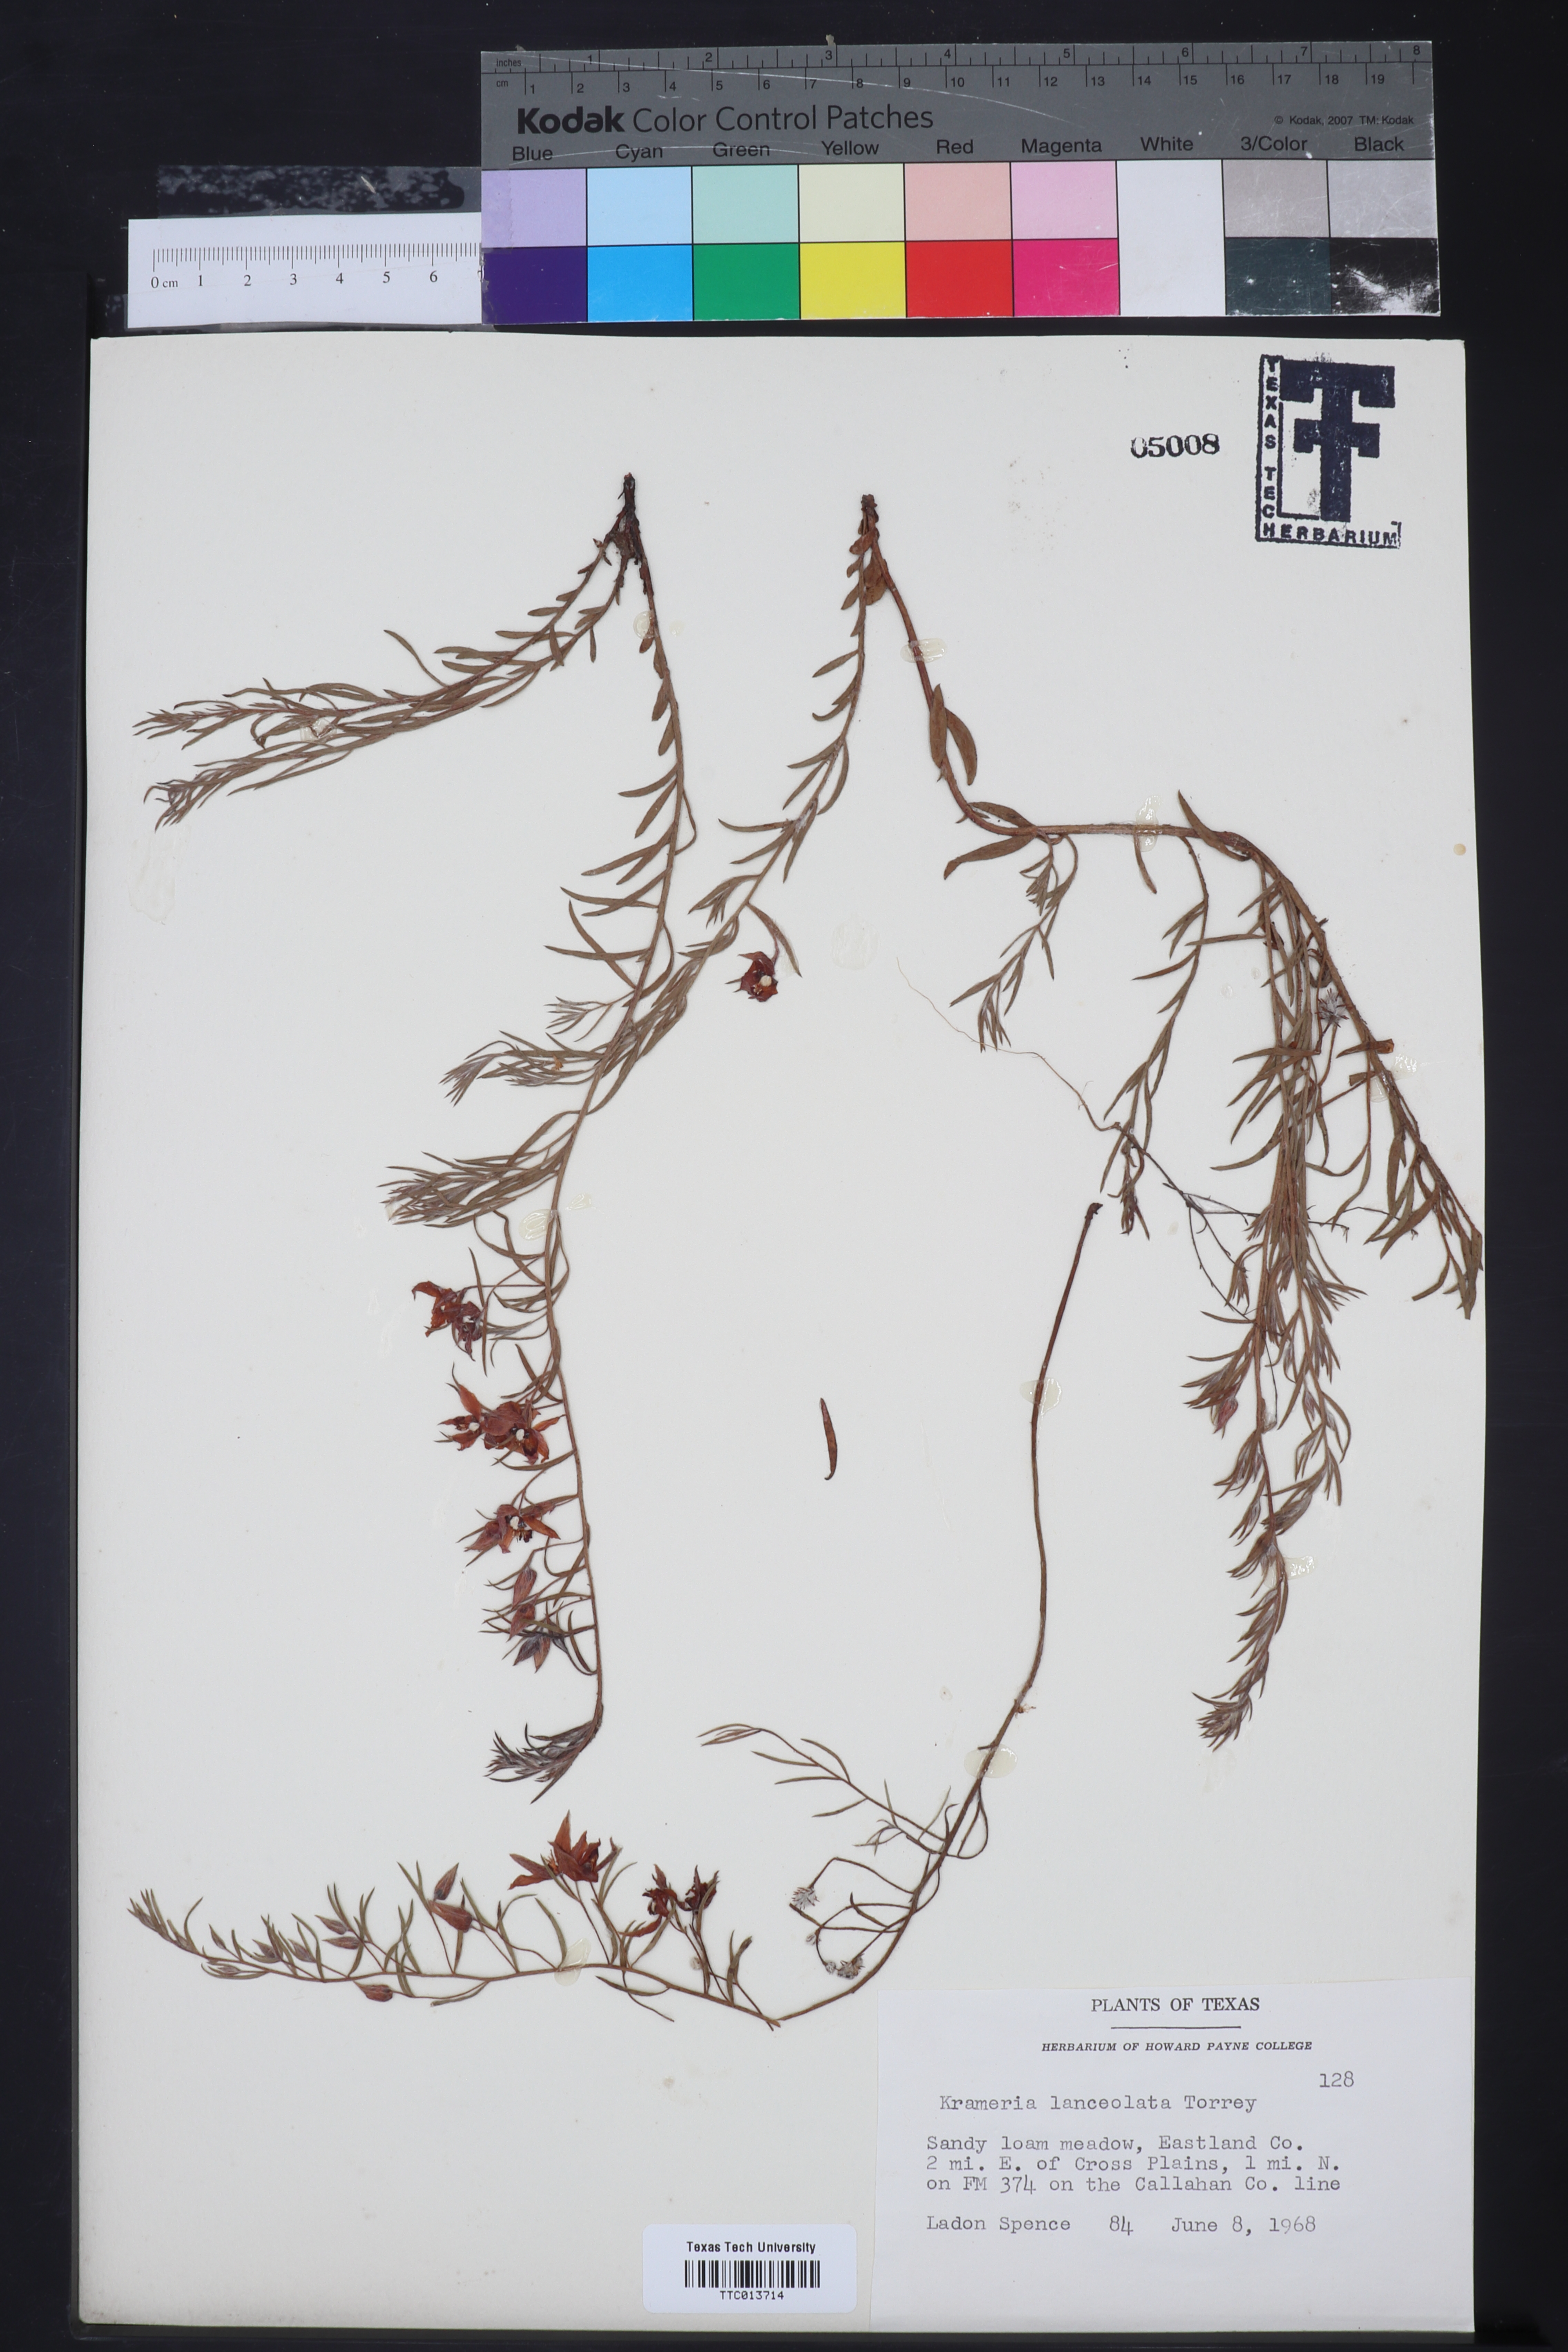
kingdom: Plantae
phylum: Tracheophyta
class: Magnoliopsida
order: Zygophyllales
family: Krameriaceae
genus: Krameria
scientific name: Krameria lanceolata
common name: Ratany
